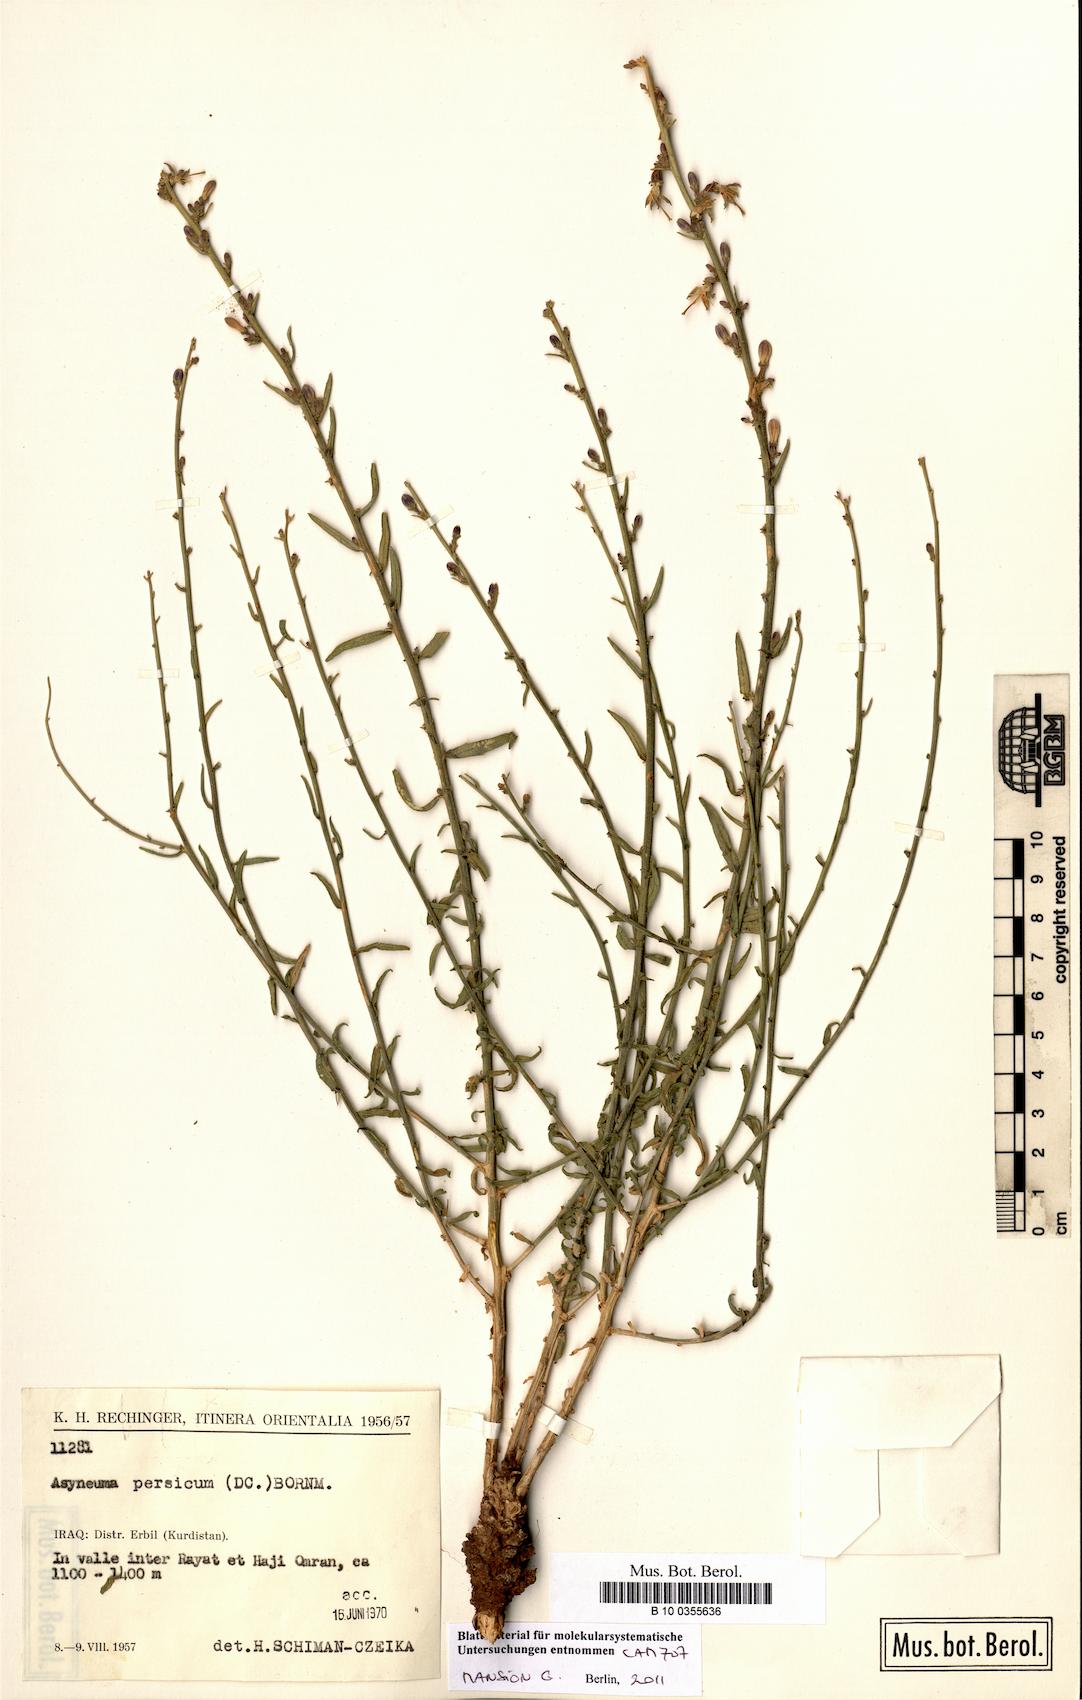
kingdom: Plantae
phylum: Tracheophyta
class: Magnoliopsida
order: Asterales
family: Campanulaceae
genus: Asyneuma
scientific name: Asyneuma persicum
